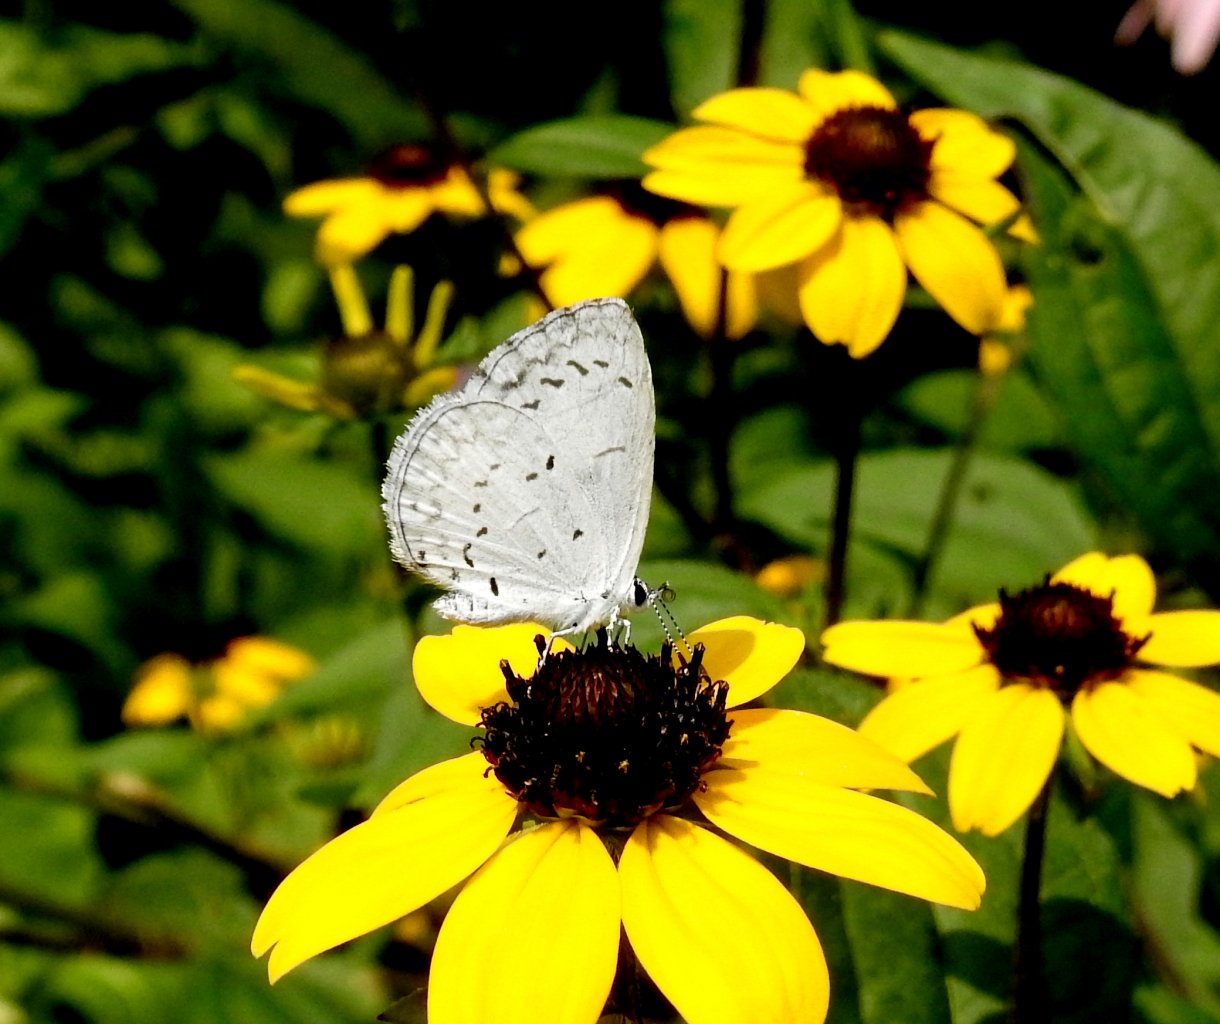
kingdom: Animalia
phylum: Arthropoda
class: Insecta
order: Lepidoptera
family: Lycaenidae
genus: Celastrina
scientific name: Celastrina
